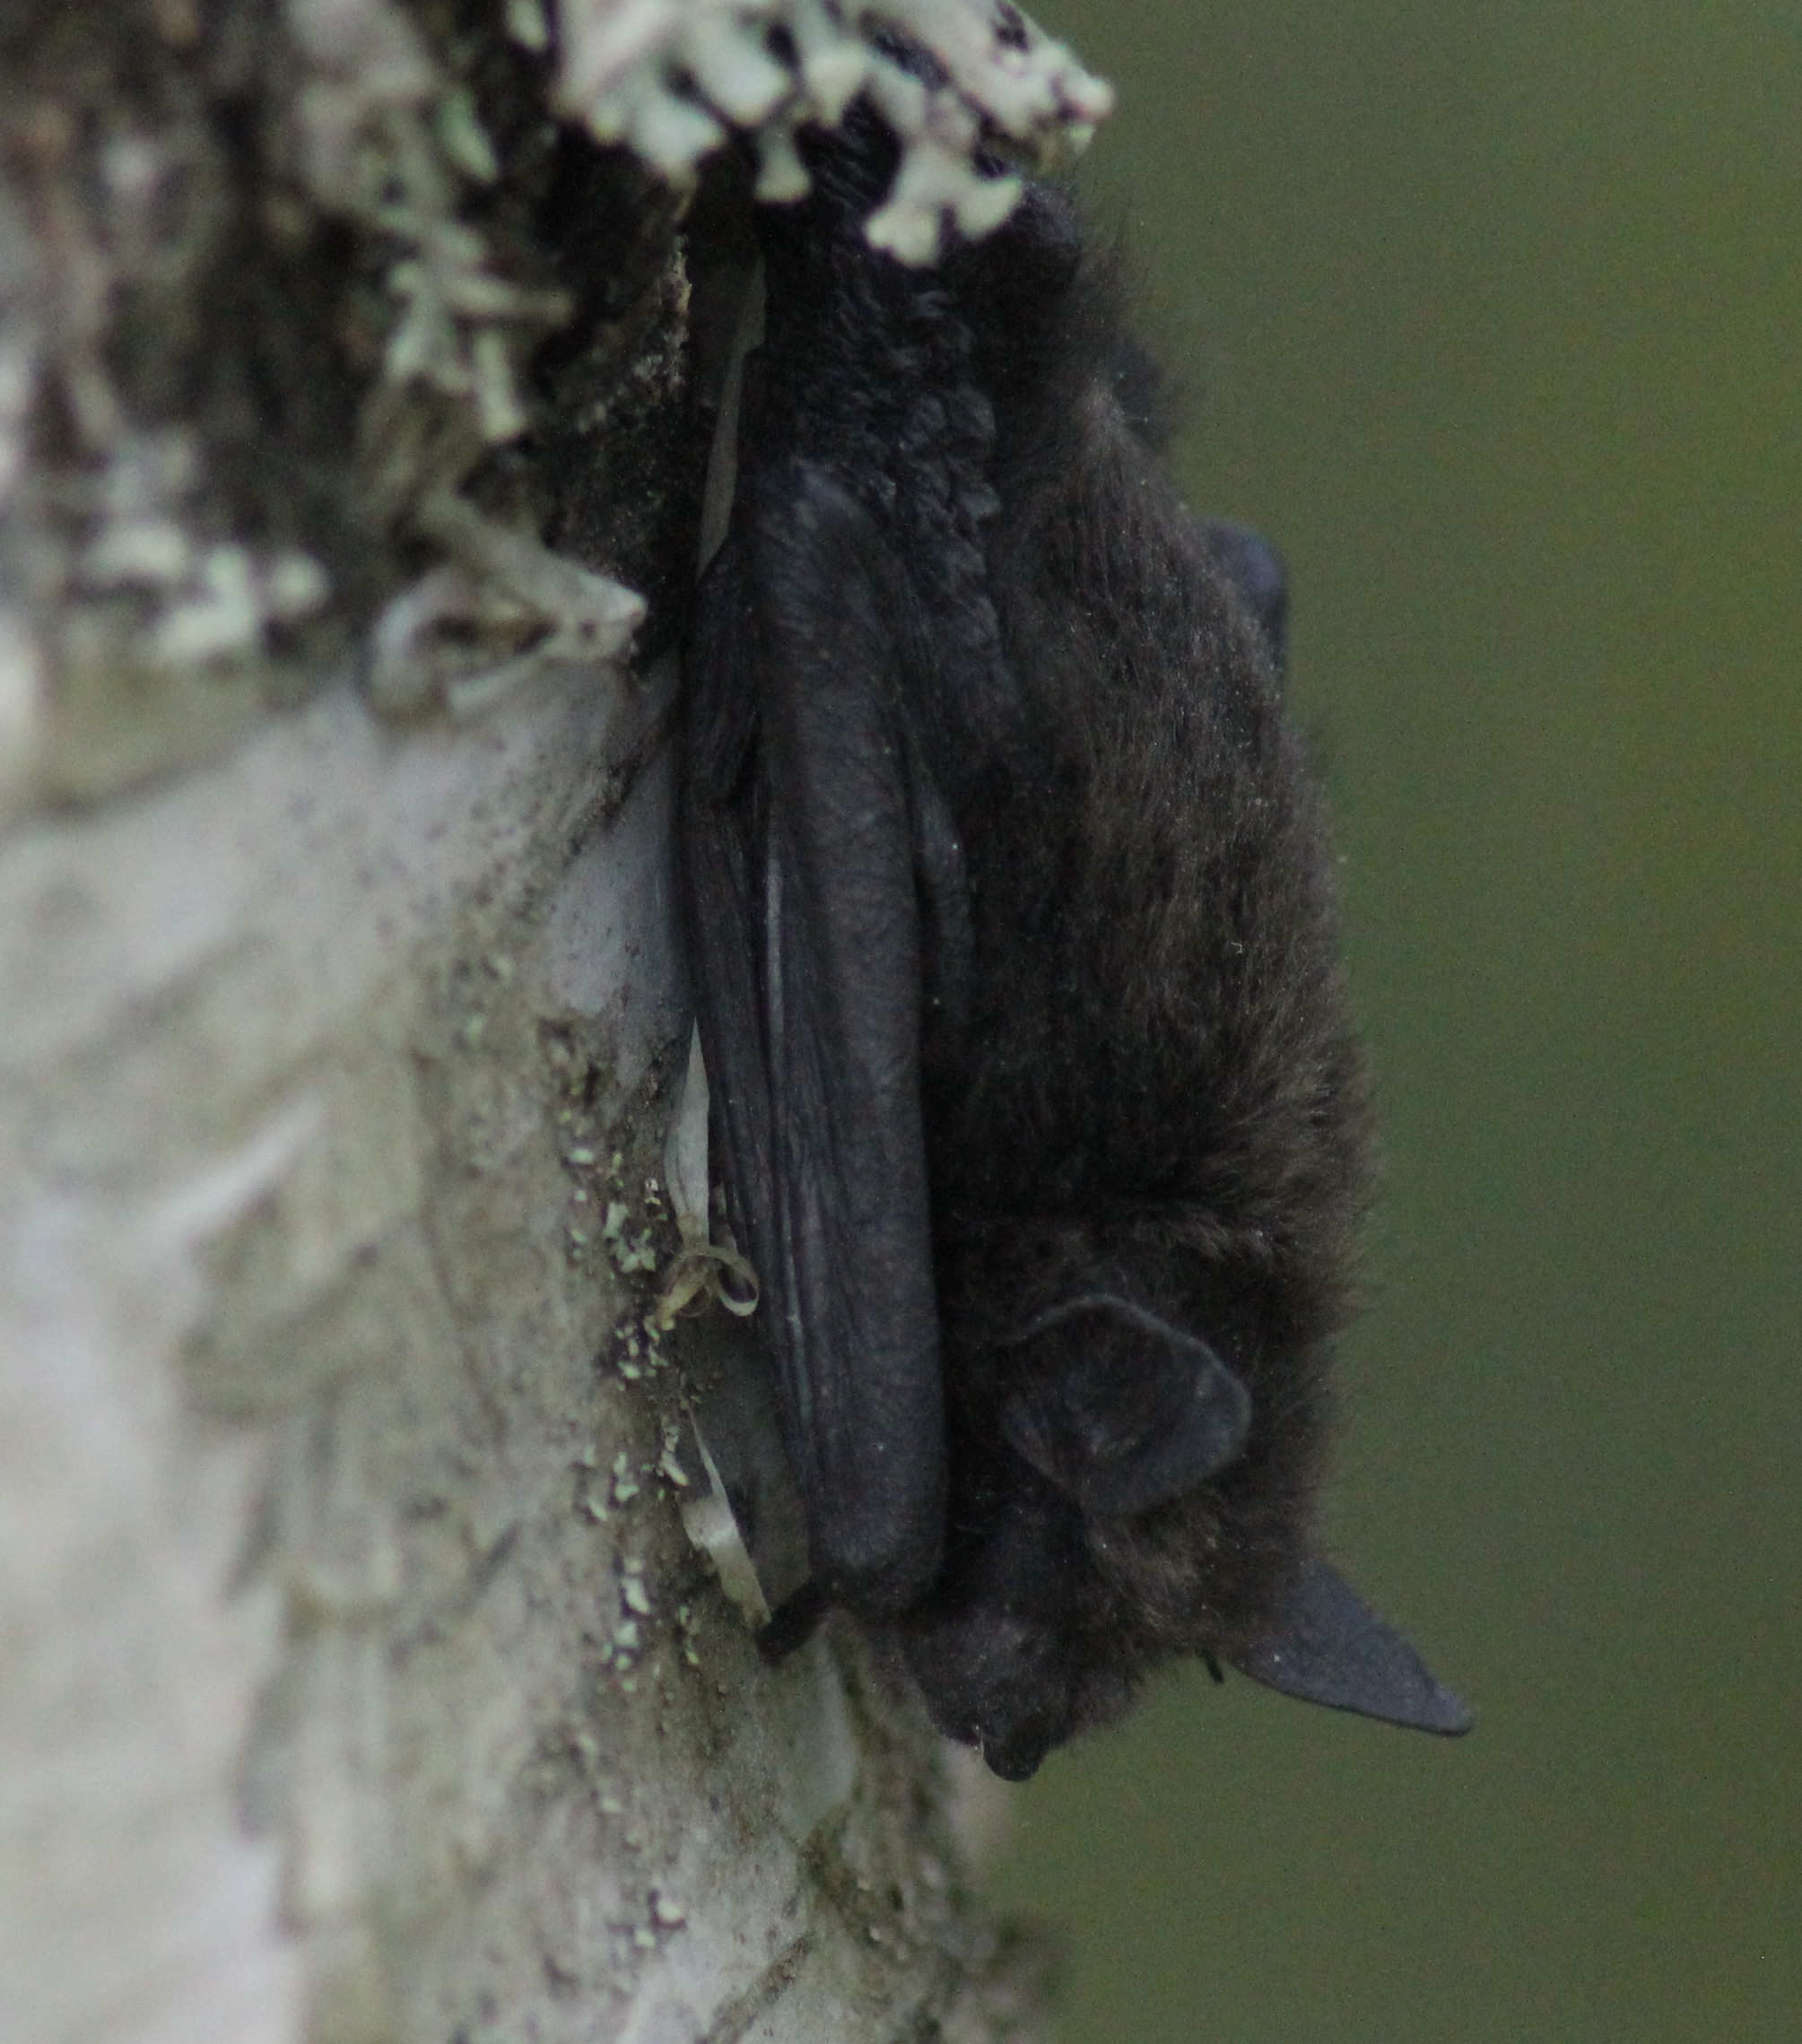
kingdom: Animalia
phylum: Chordata
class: Mammalia
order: Chiroptera
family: Vespertilionidae
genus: Eptesicus
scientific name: Eptesicus nilssonii
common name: Northern bat
